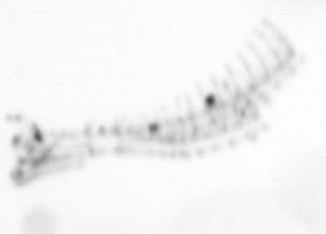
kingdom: Chromista
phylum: Ochrophyta
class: Bacillariophyceae
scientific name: Bacillariophyceae
